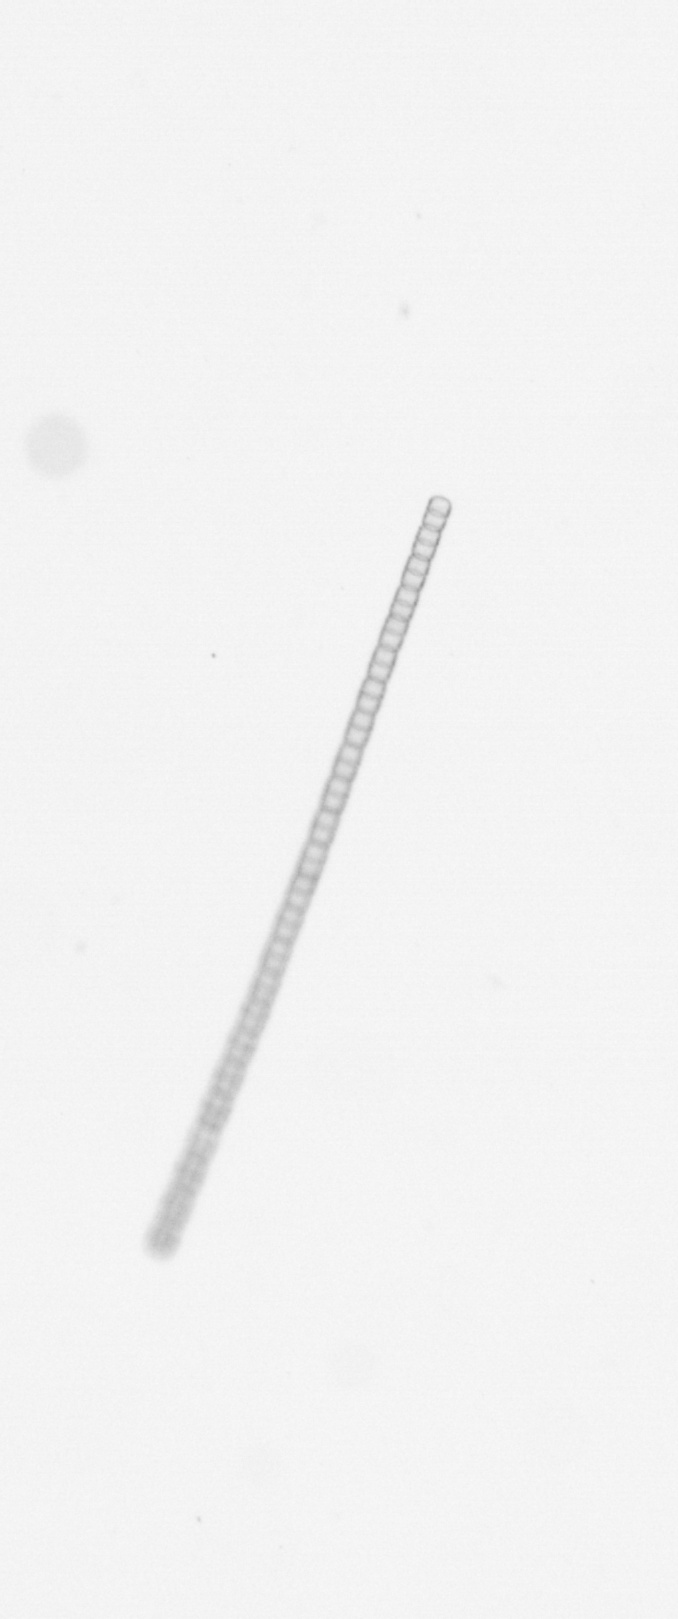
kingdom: Chromista
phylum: Ochrophyta
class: Bacillariophyceae
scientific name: Bacillariophyceae
